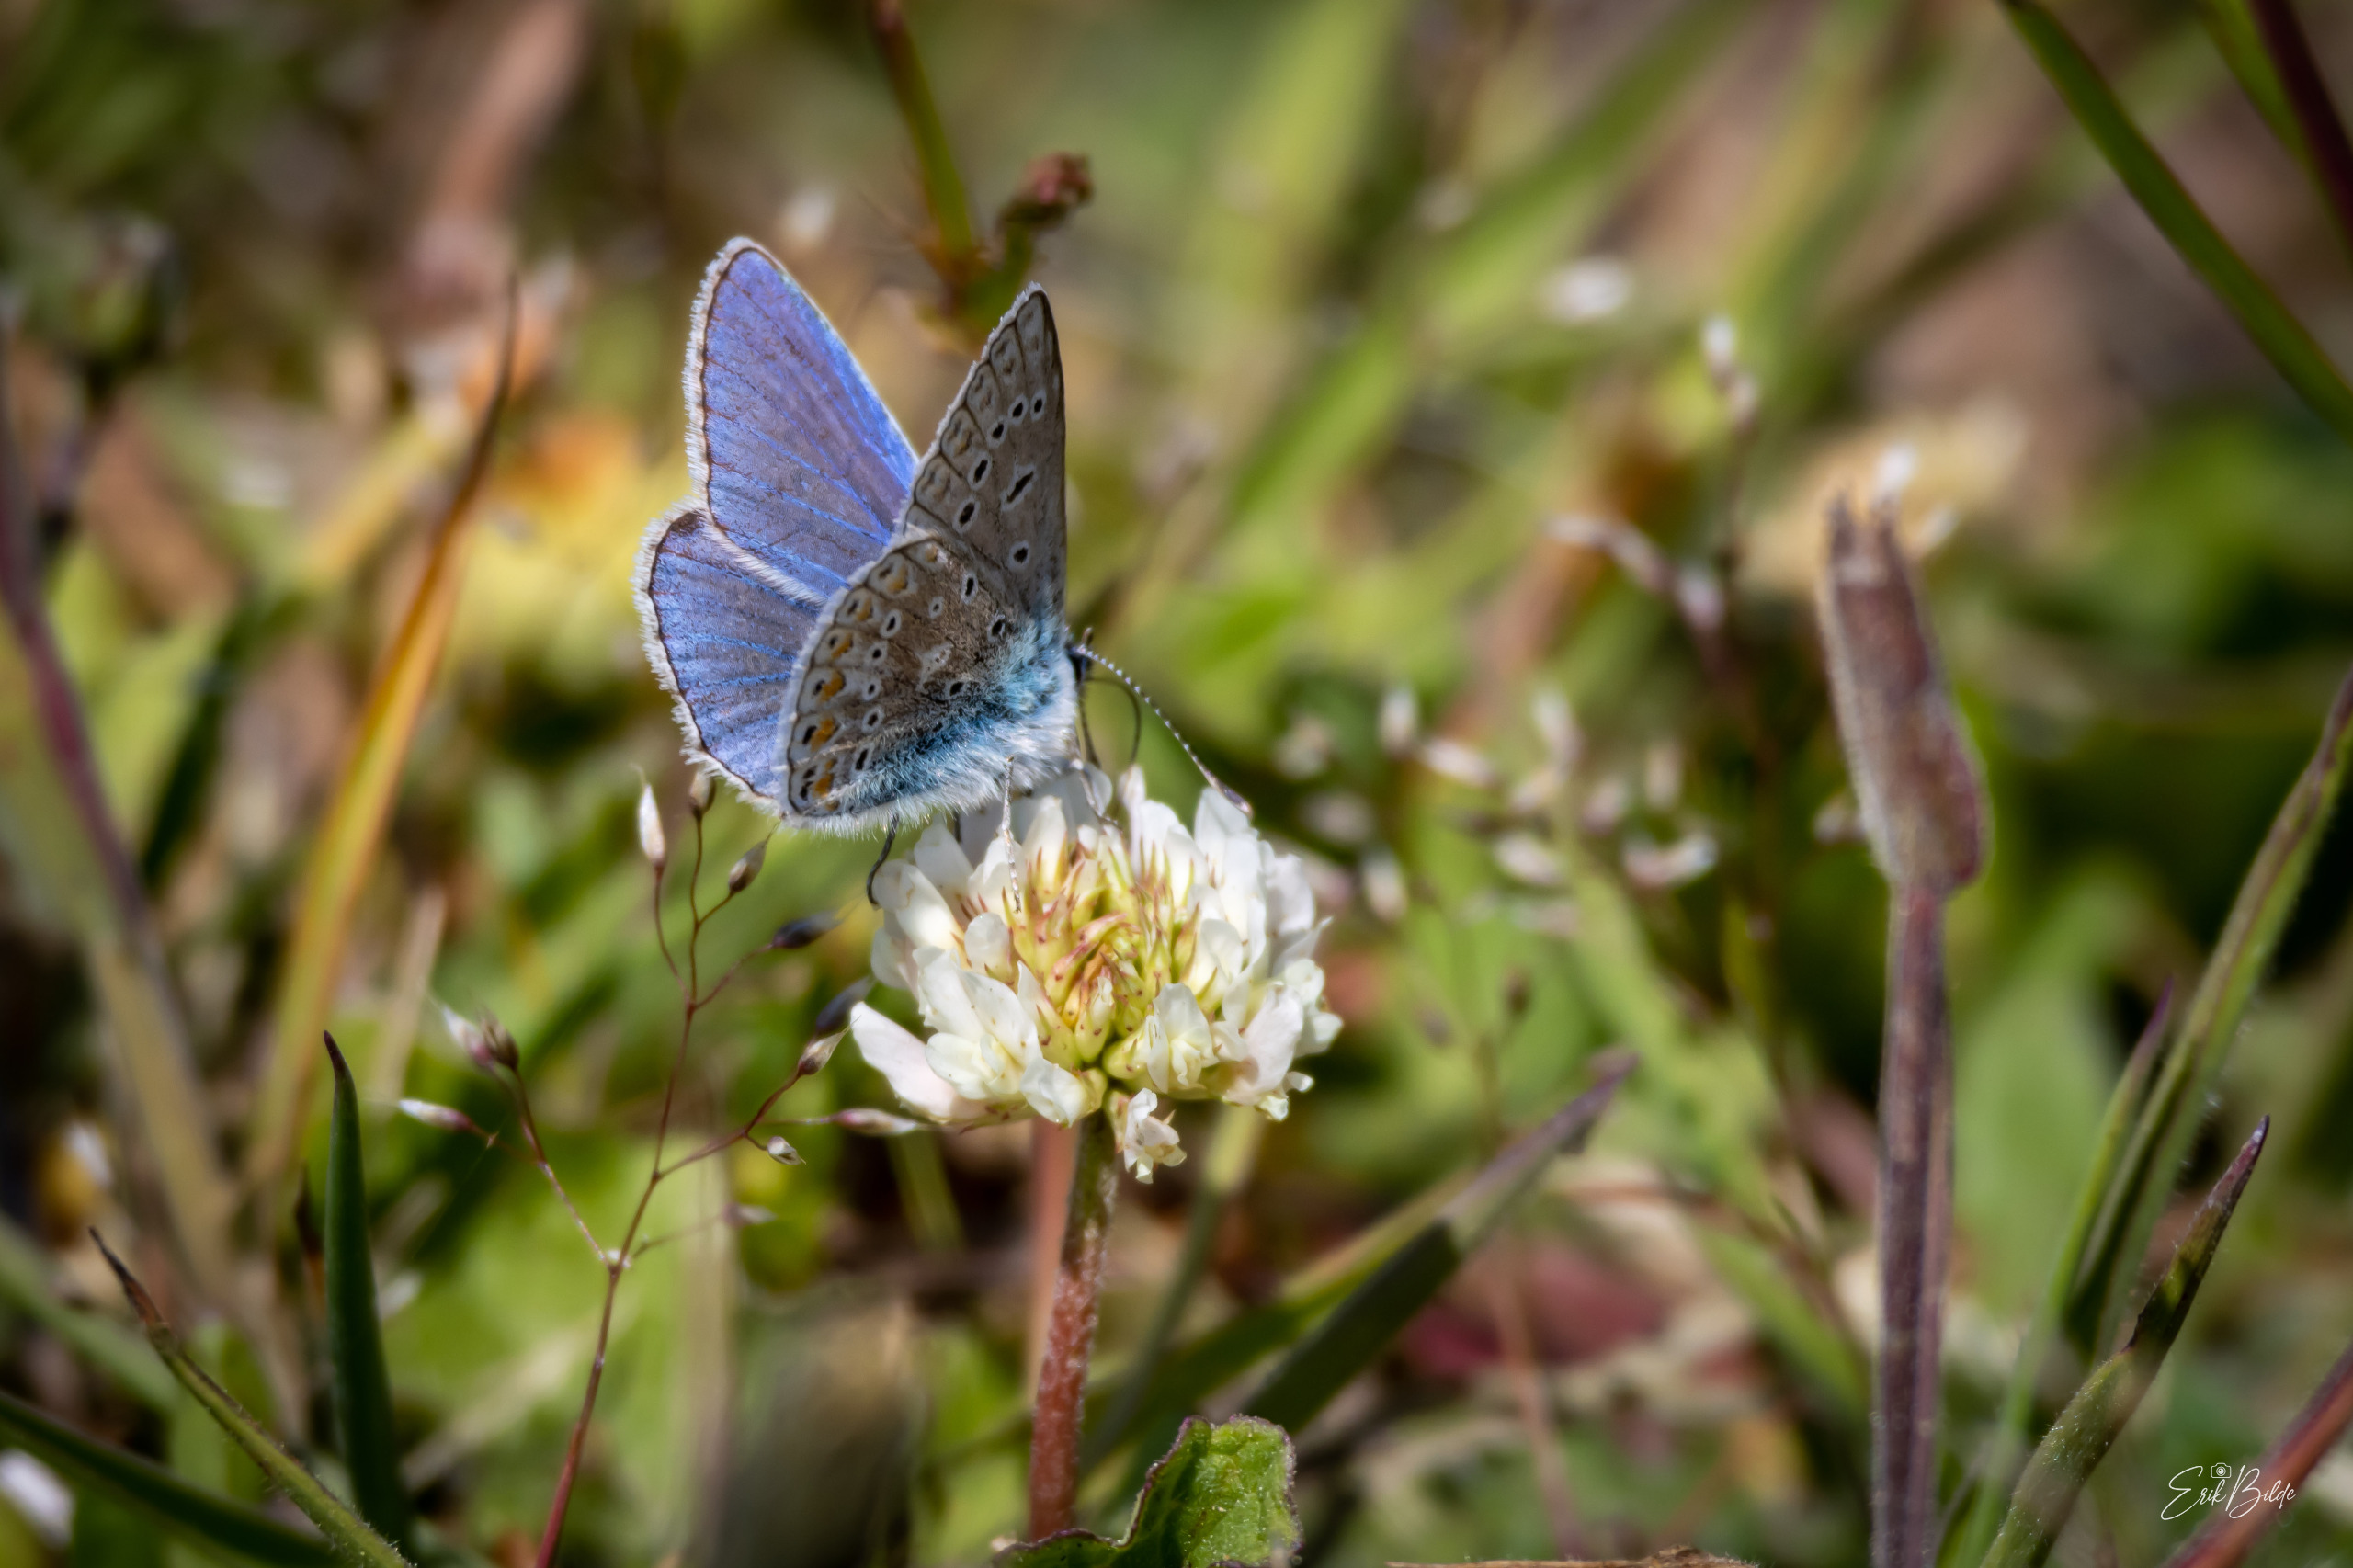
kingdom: Animalia
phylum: Arthropoda
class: Insecta
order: Lepidoptera
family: Lycaenidae
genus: Polyommatus
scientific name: Polyommatus icarus
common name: Almindelig blåfugl
